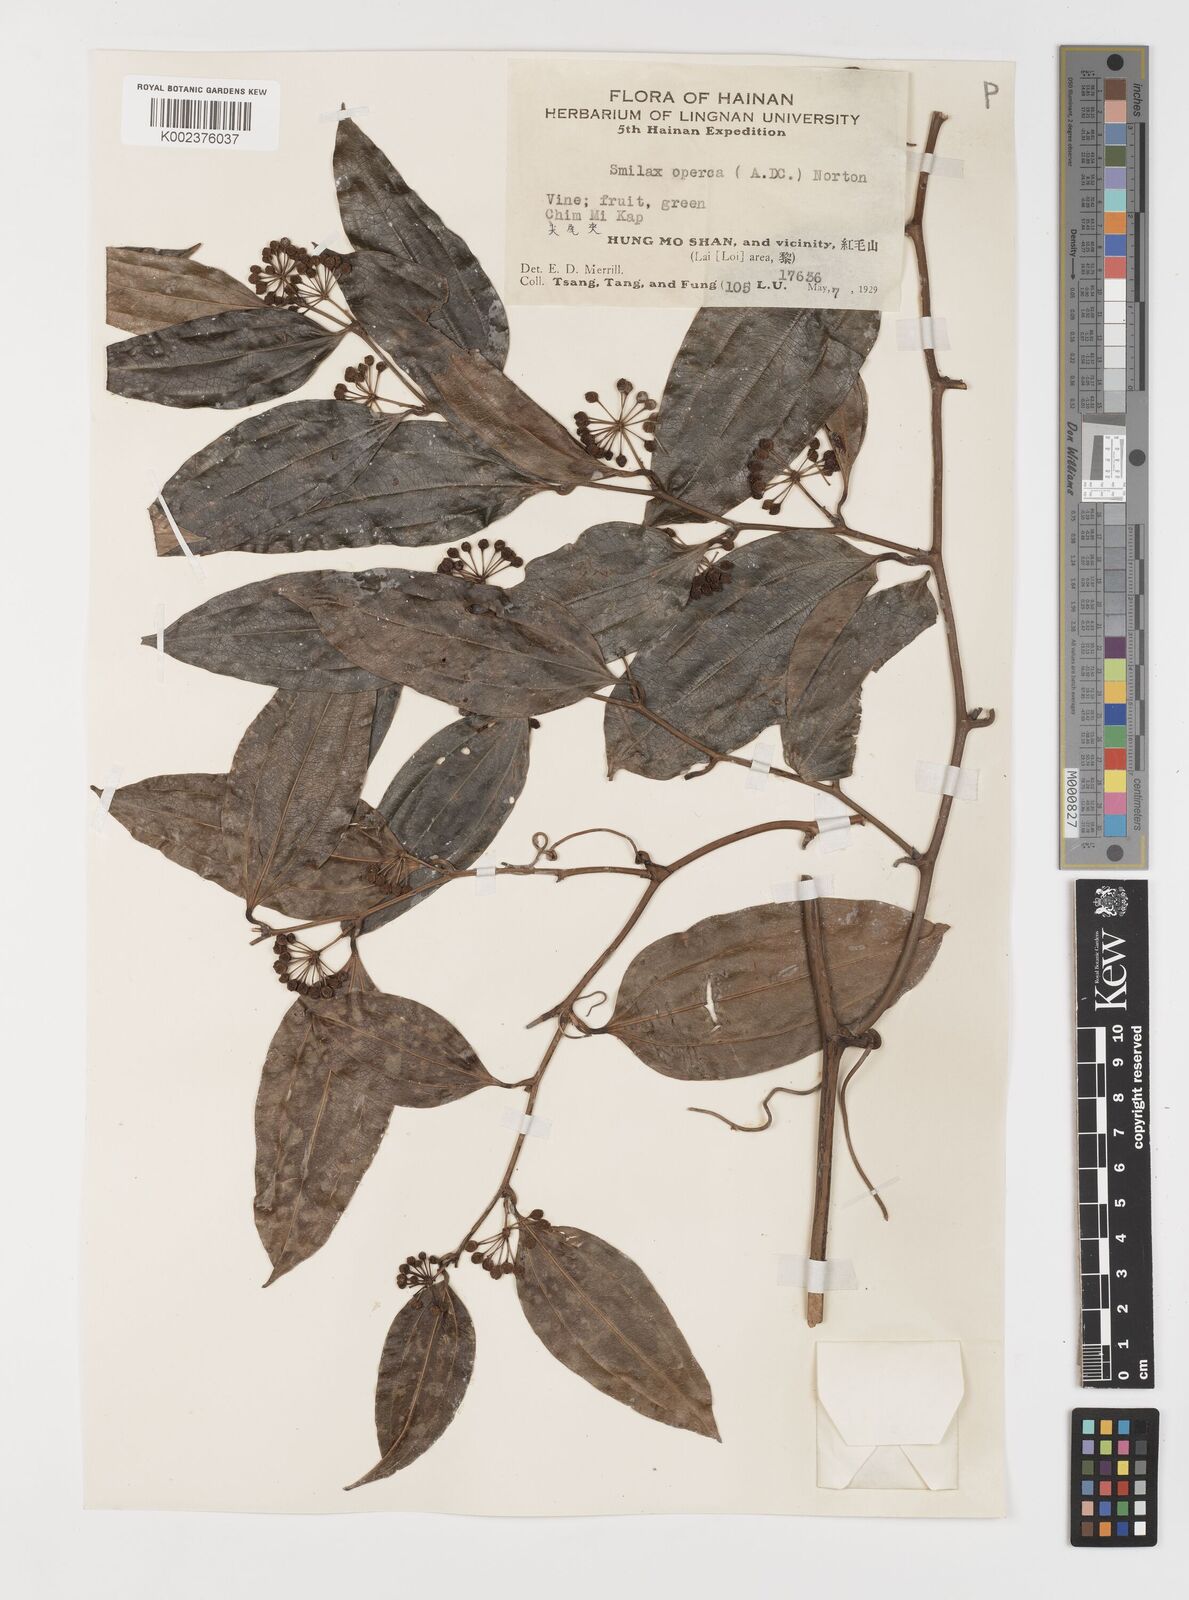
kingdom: Plantae
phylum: Tracheophyta
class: Liliopsida
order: Liliales
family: Smilacaceae
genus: Smilax
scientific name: Smilax laevis
